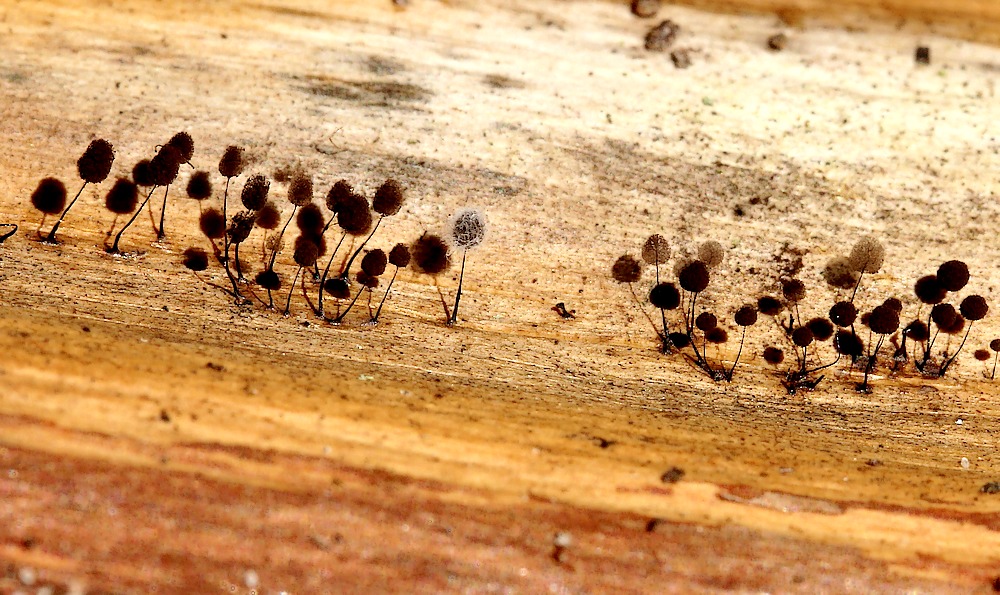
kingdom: Protozoa
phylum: Mycetozoa
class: Myxomycetes
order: Stemonitidales
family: Stemonitidaceae
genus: Comatricha
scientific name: Comatricha
